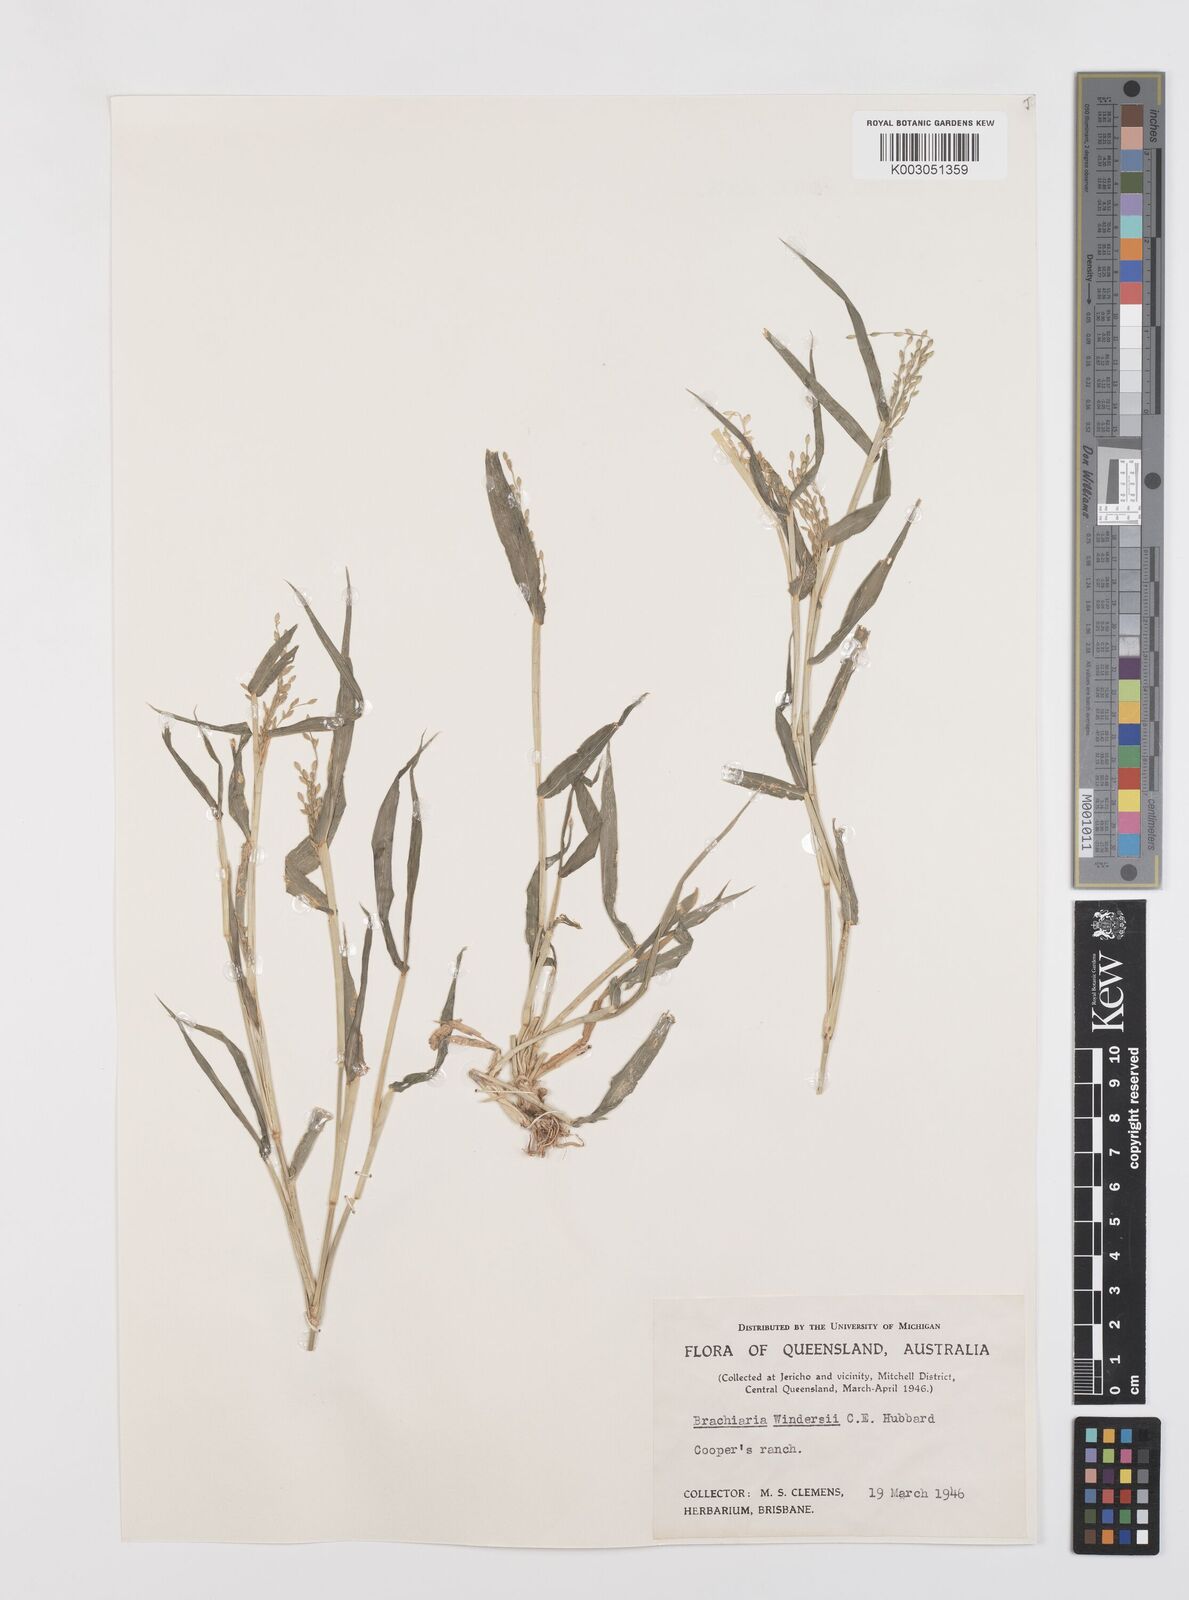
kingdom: Plantae
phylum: Tracheophyta
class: Liliopsida
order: Poales
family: Poaceae
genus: Urochloa
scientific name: Urochloa whiteana
